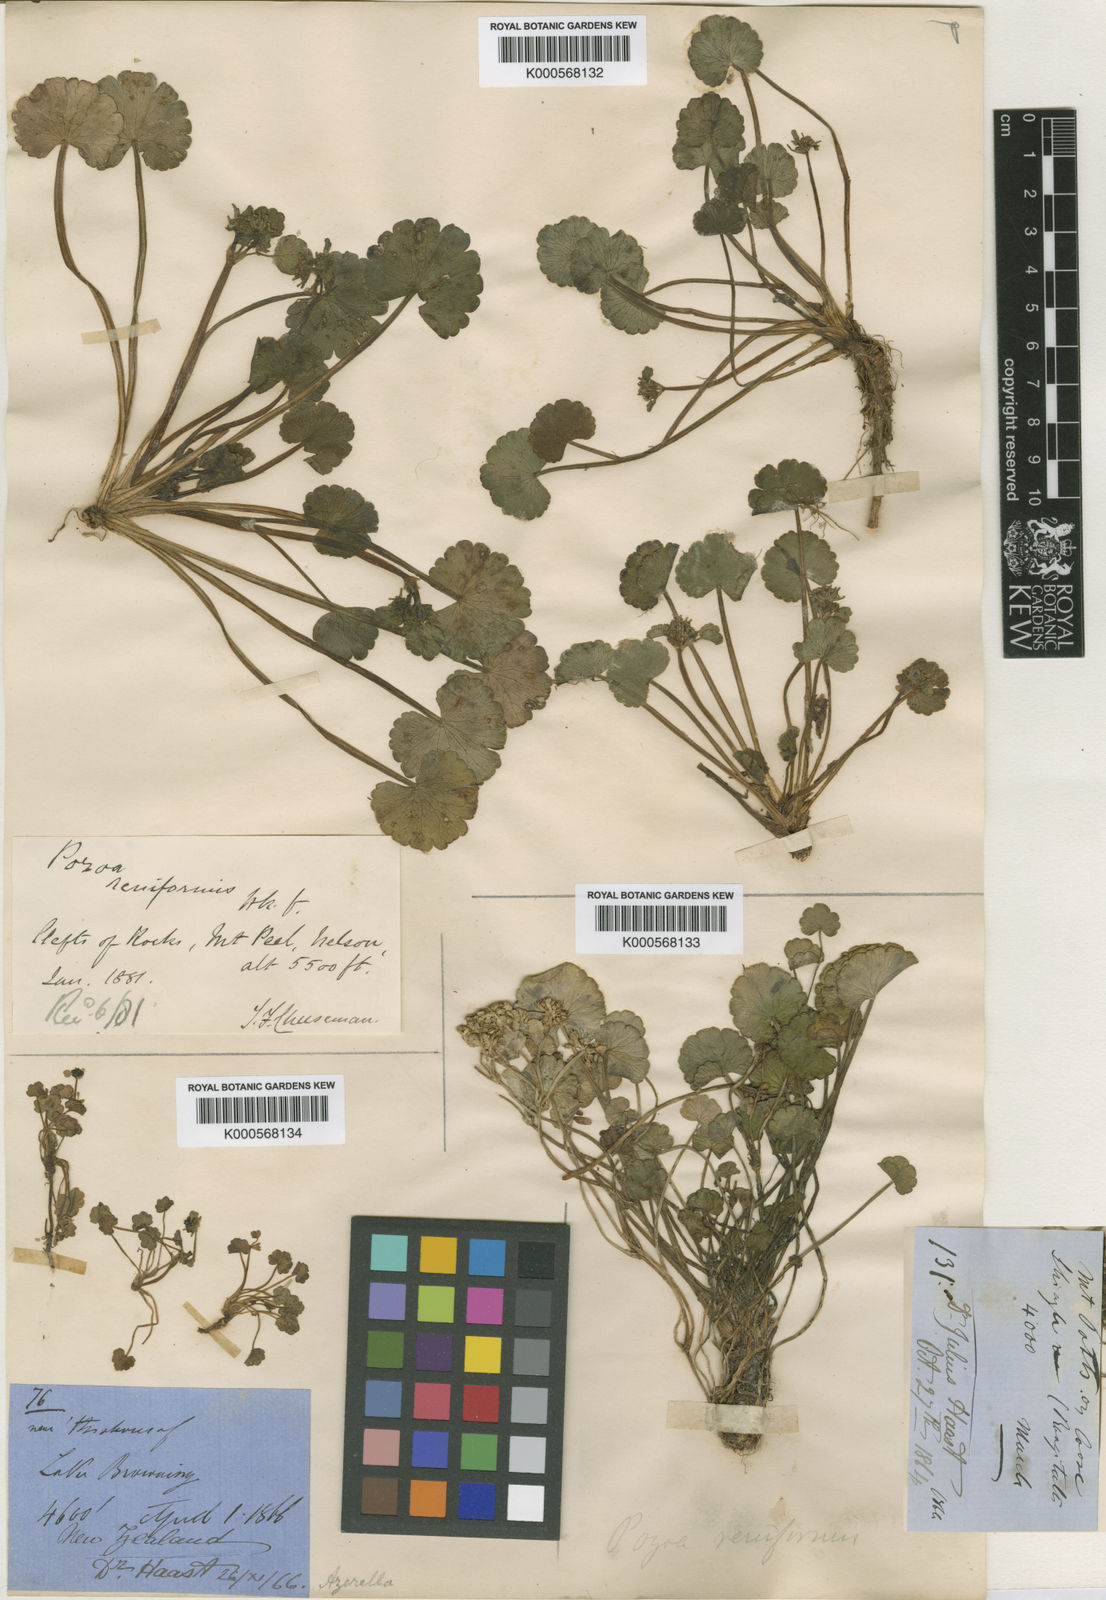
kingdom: Plantae
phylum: Tracheophyta
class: Magnoliopsida
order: Apiales
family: Apiaceae
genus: Azorella
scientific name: Azorella haastii
